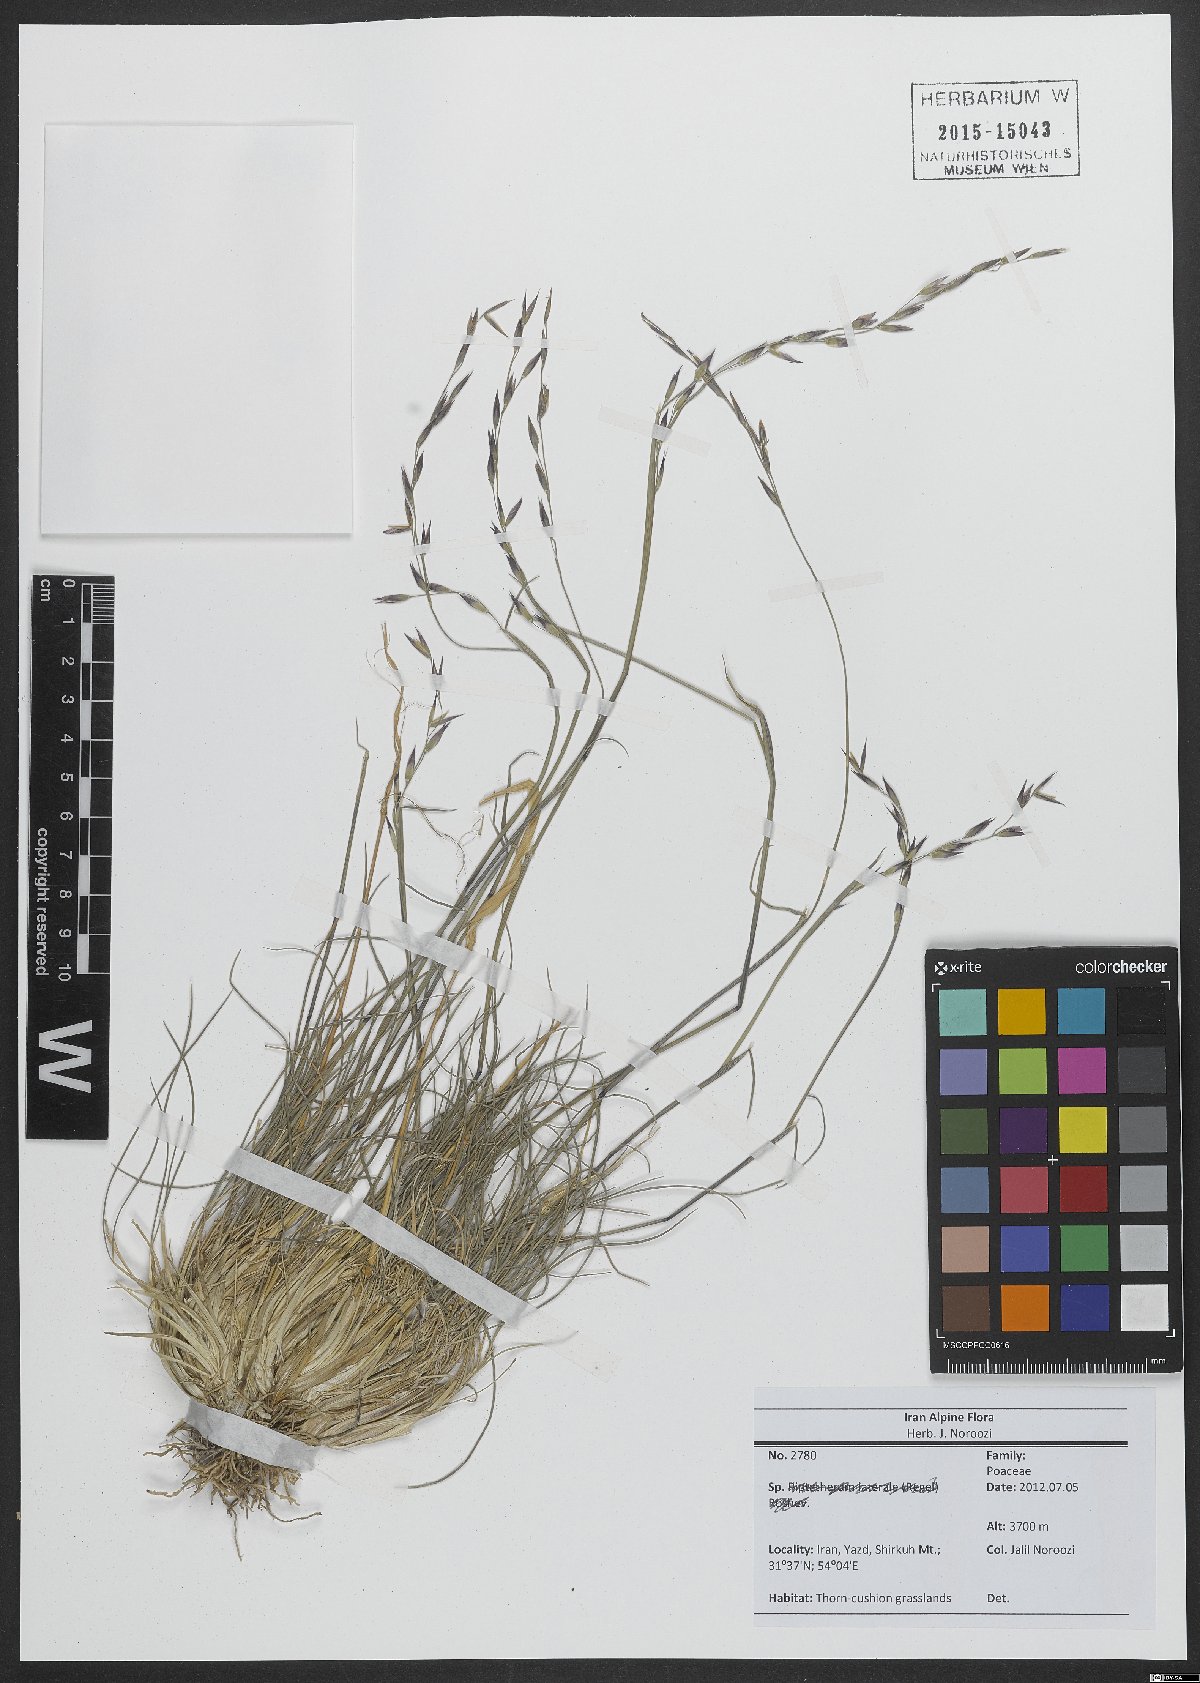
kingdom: Plantae
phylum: Tracheophyta
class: Liliopsida
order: Poales
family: Poaceae
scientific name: Poaceae
